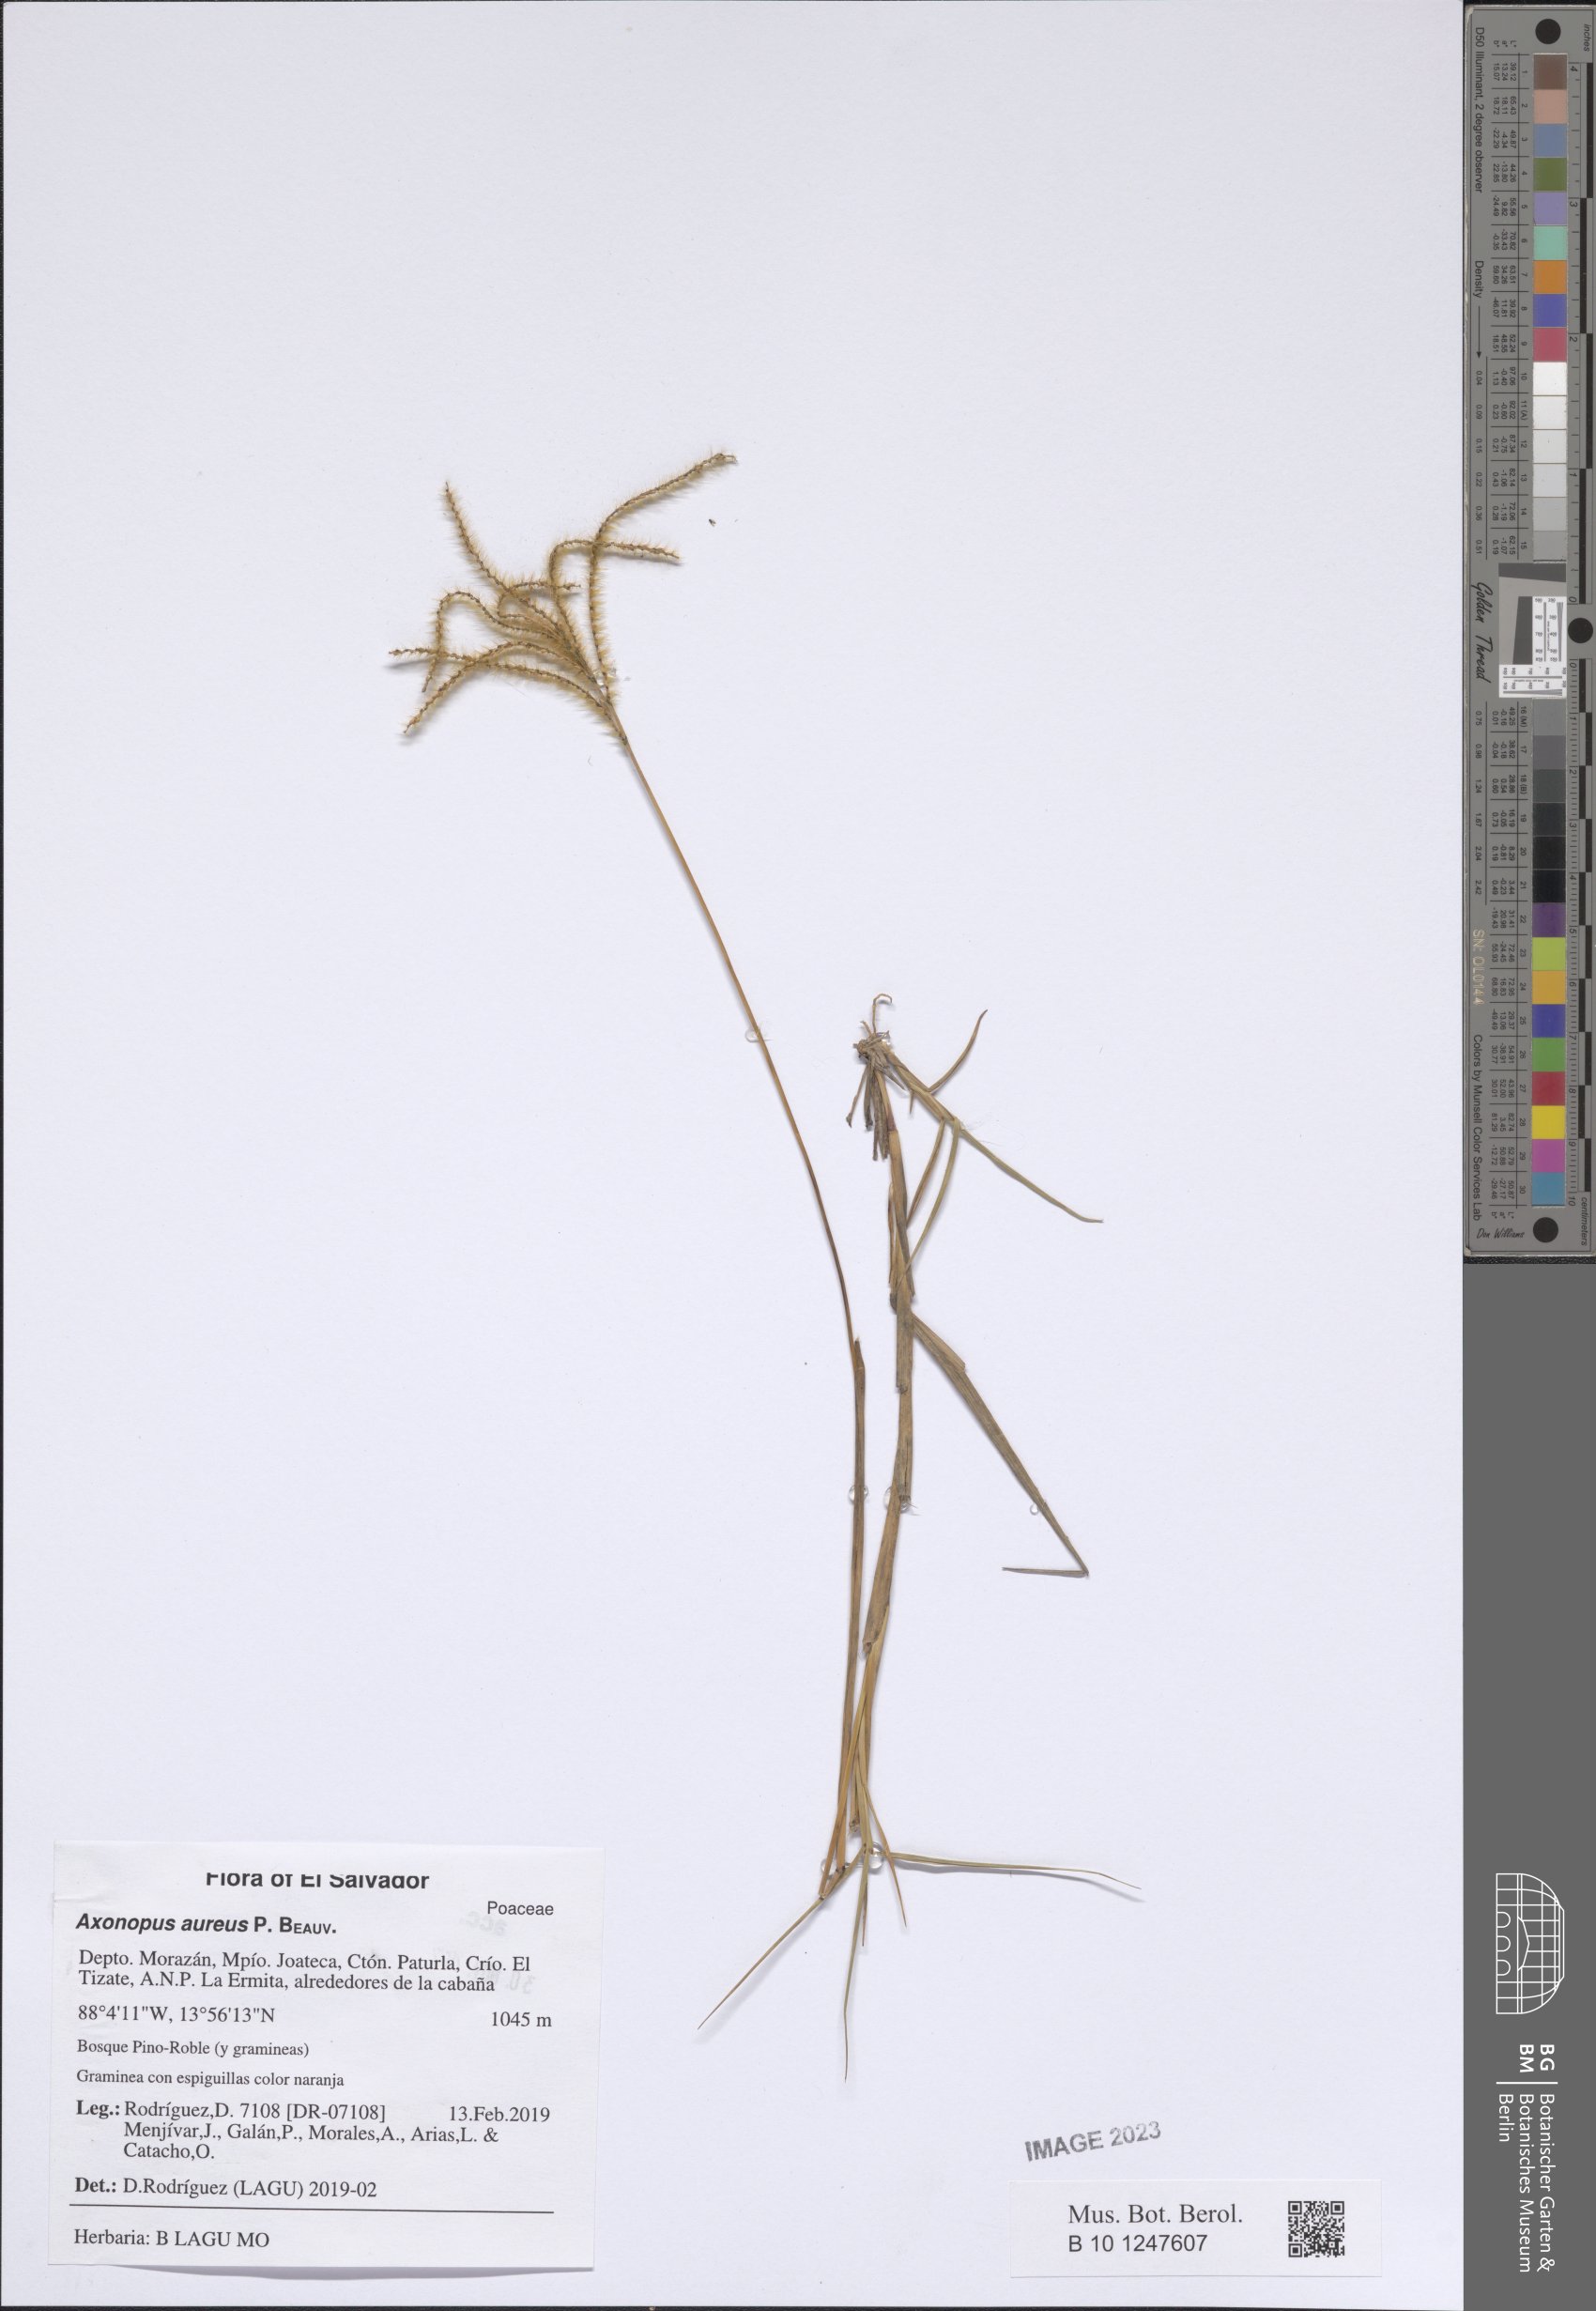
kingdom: Plantae
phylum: Tracheophyta
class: Liliopsida
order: Poales
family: Poaceae
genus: Axonopus
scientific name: Axonopus aureus
